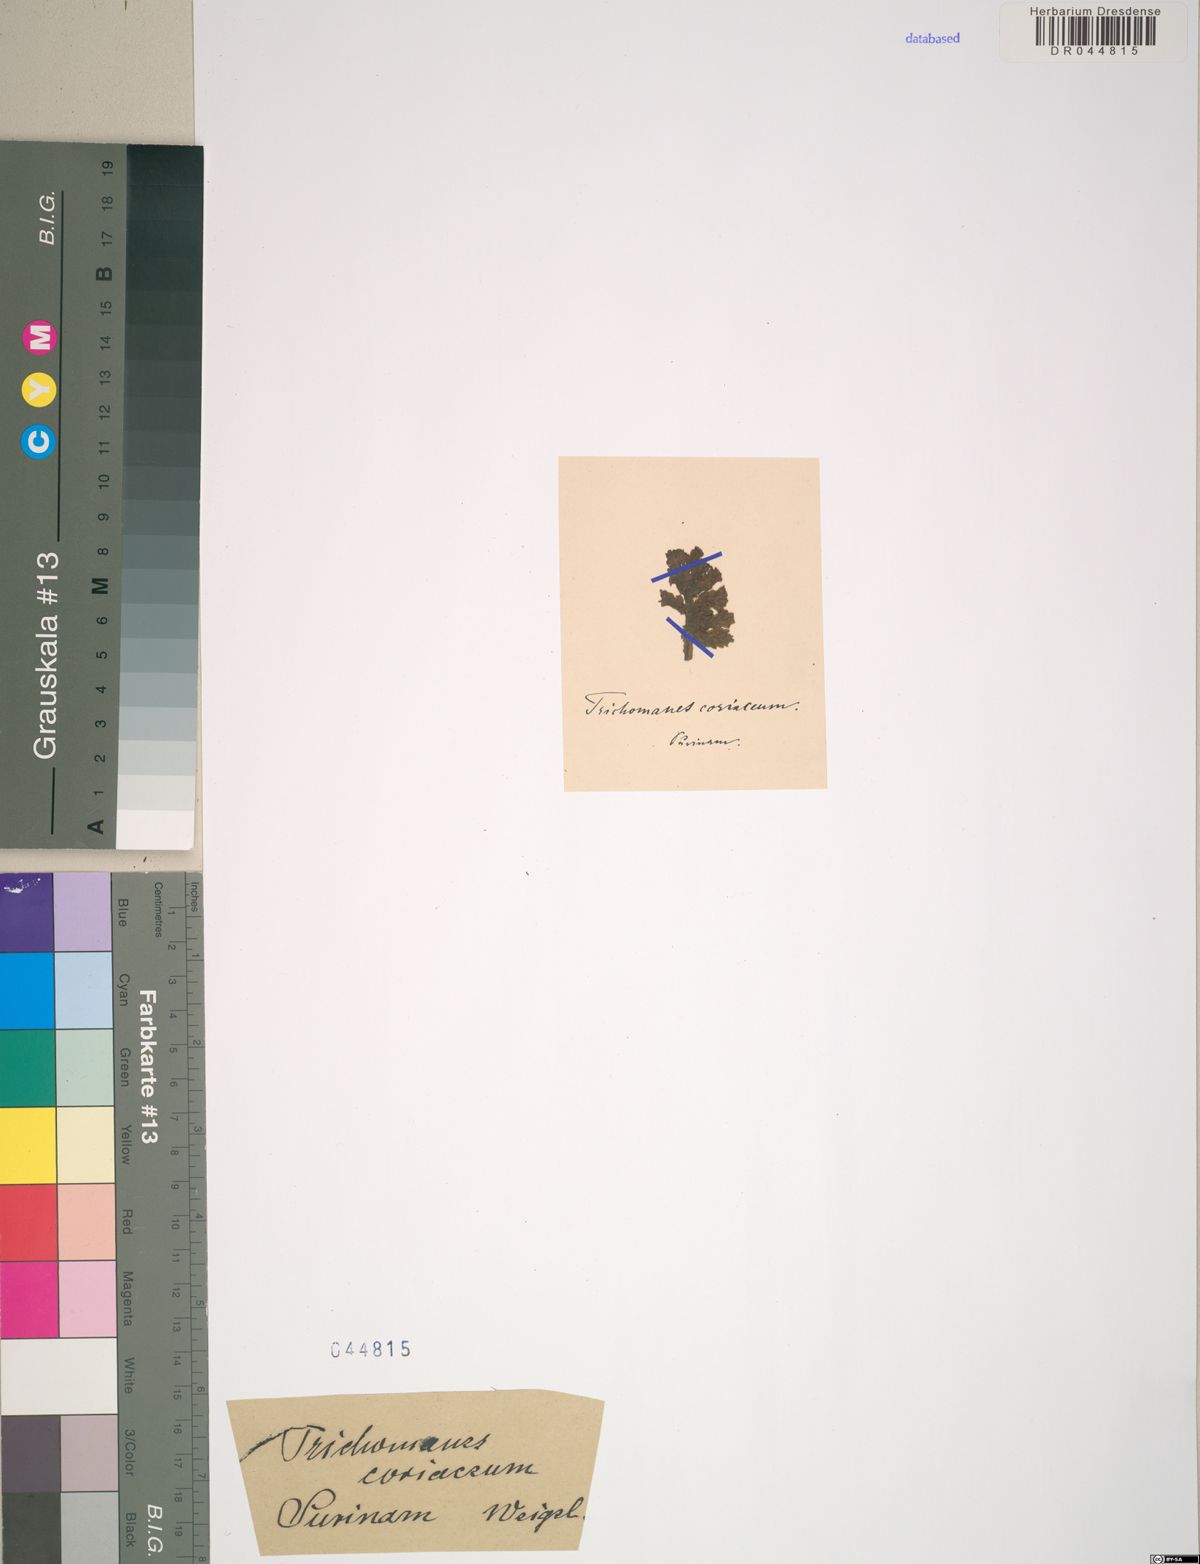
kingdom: Plantae
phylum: Tracheophyta
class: Polypodiopsida
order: Hymenophyllales
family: Hymenophyllaceae
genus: Trichomanes
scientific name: Trichomanes arbuscula
